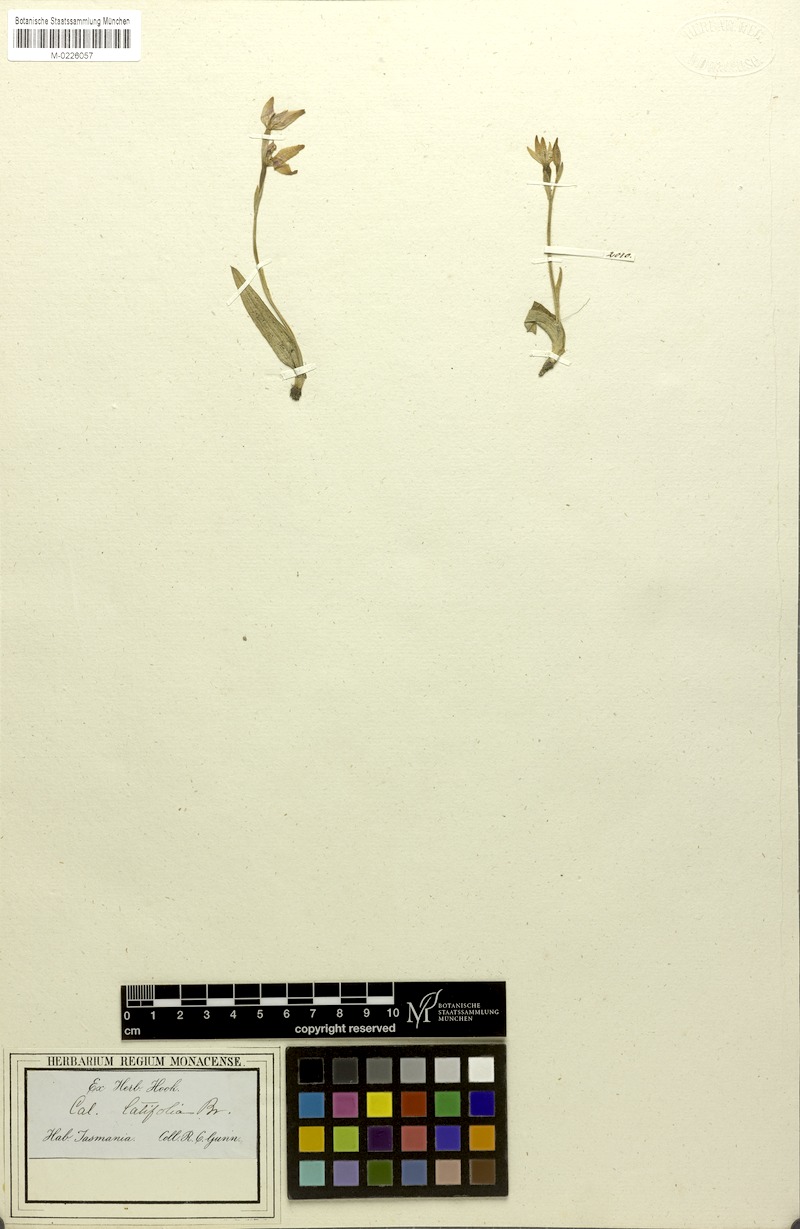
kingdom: Plantae
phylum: Tracheophyta
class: Liliopsida
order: Asparagales
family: Orchidaceae
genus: Caladenia
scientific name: Caladenia latifolia
